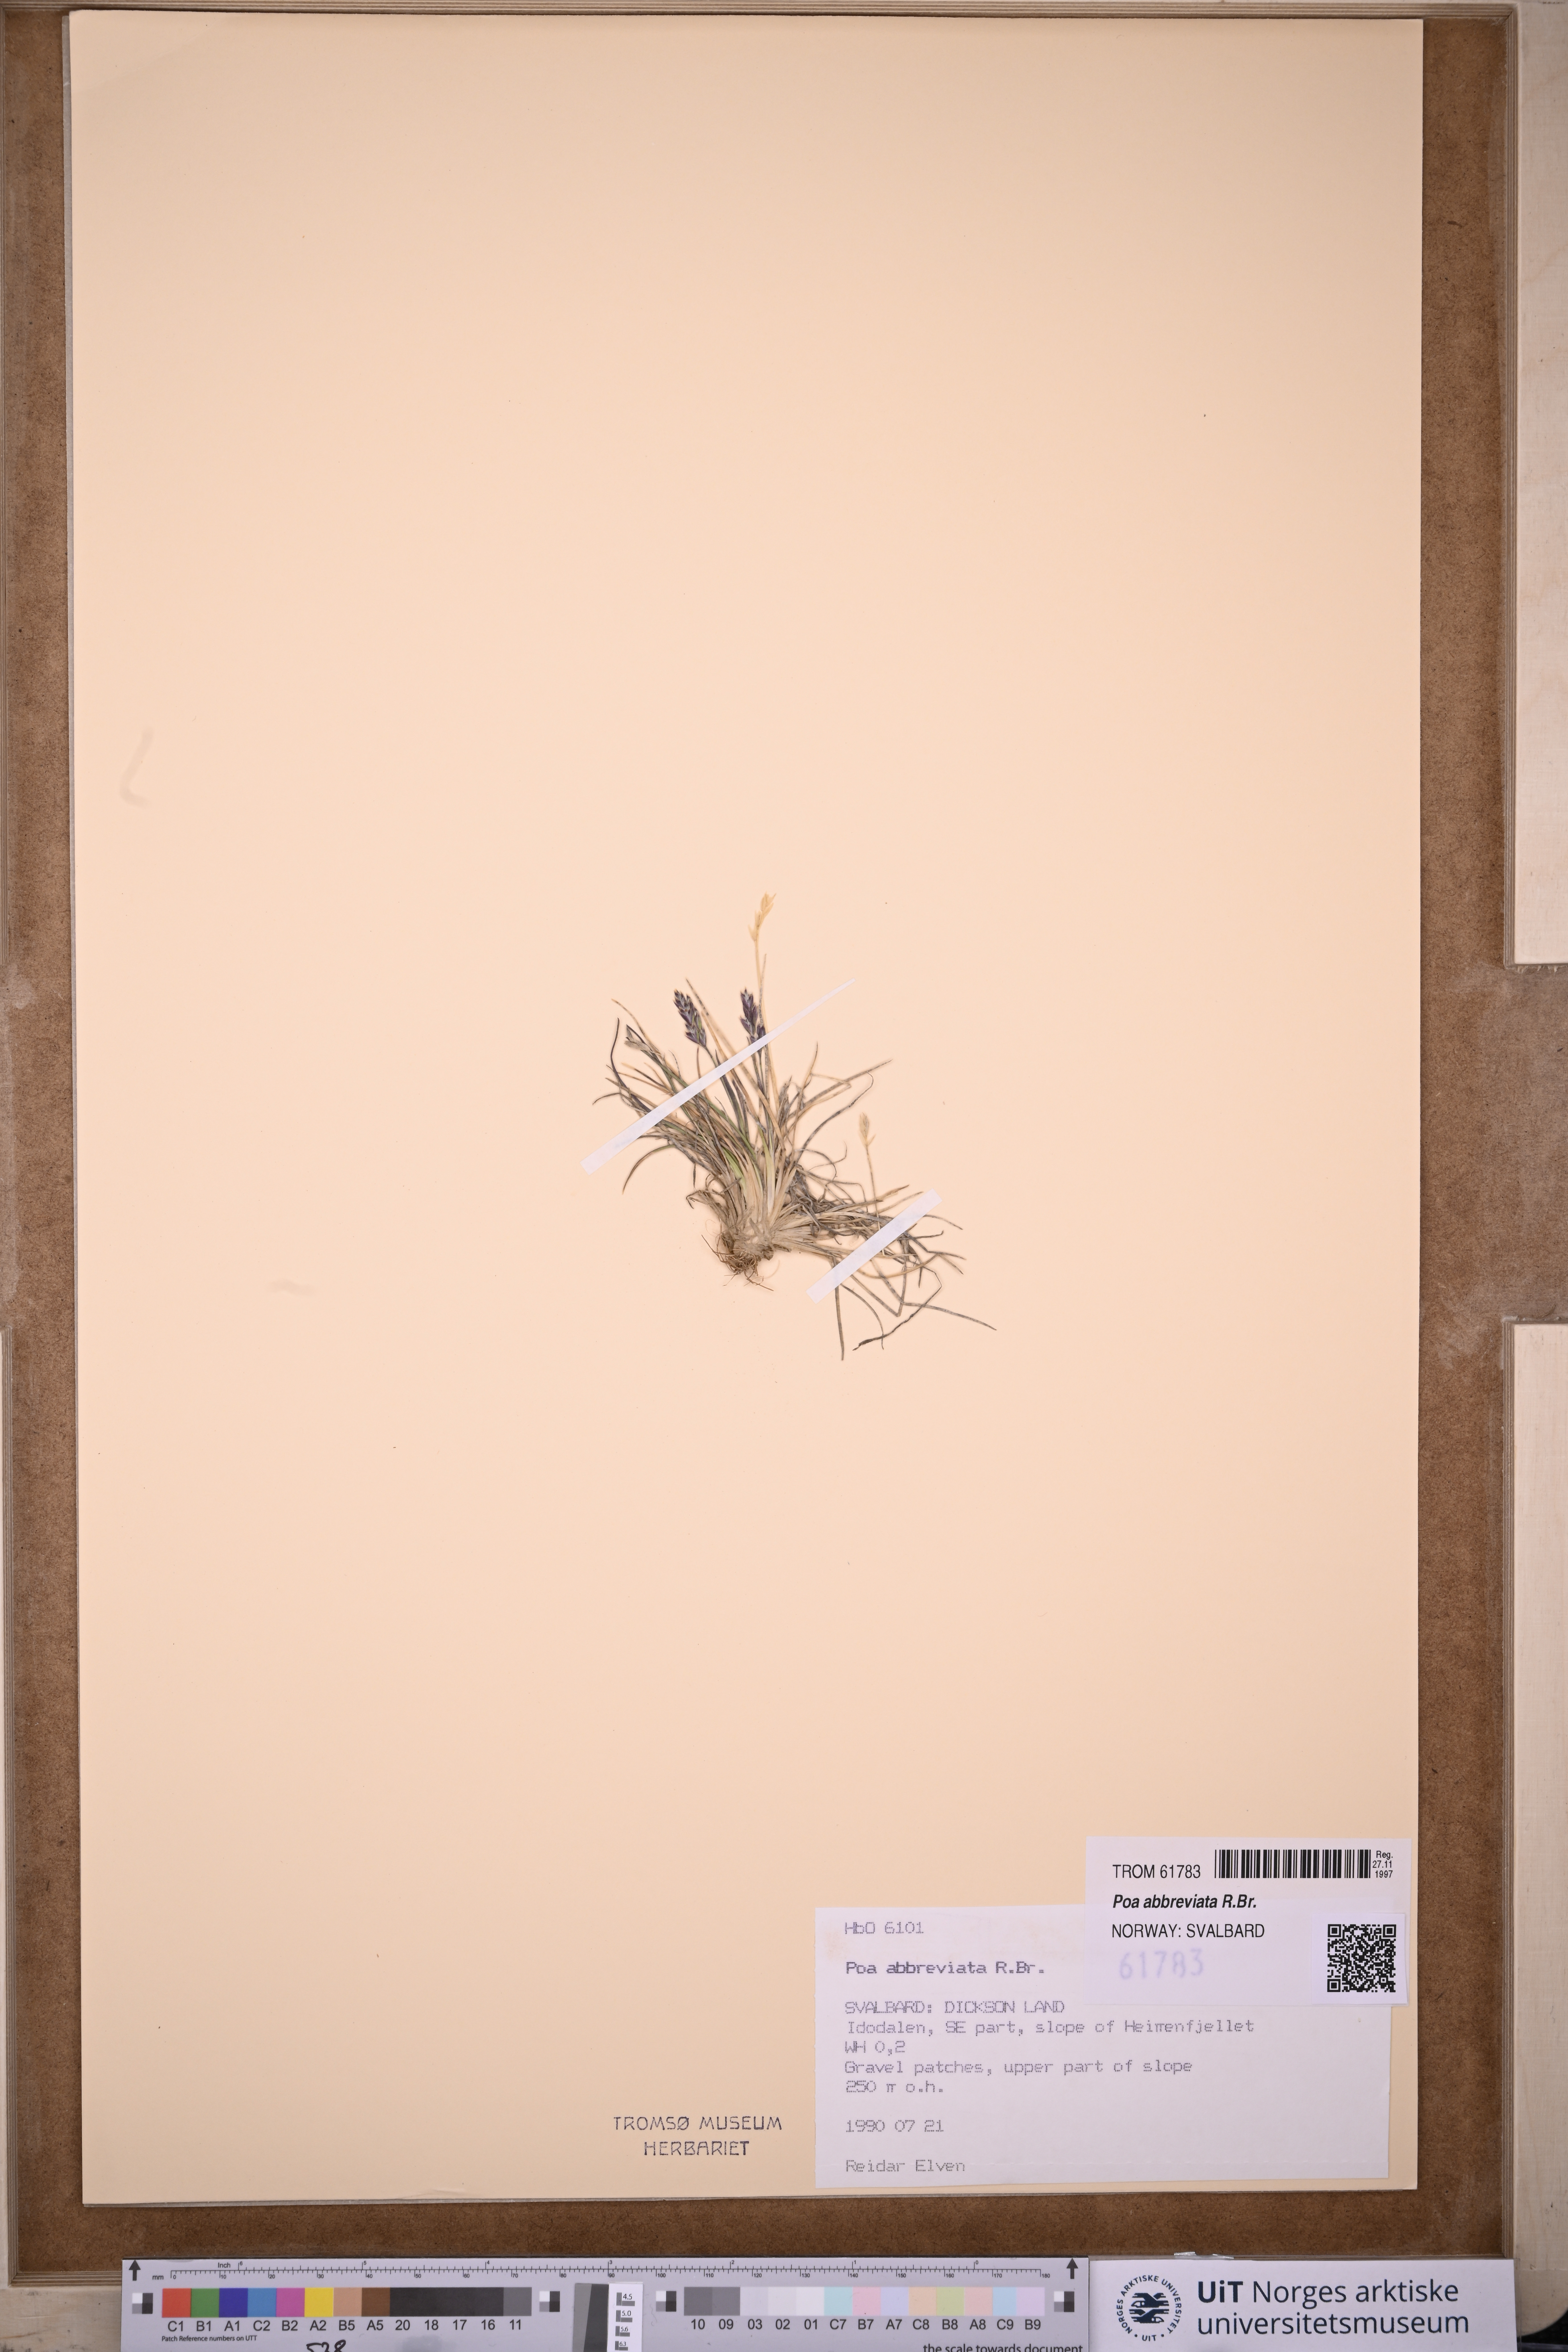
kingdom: Plantae
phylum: Tracheophyta
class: Liliopsida
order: Poales
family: Poaceae
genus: Poa
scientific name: Poa abbreviata
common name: Abbreviated bluegrass
